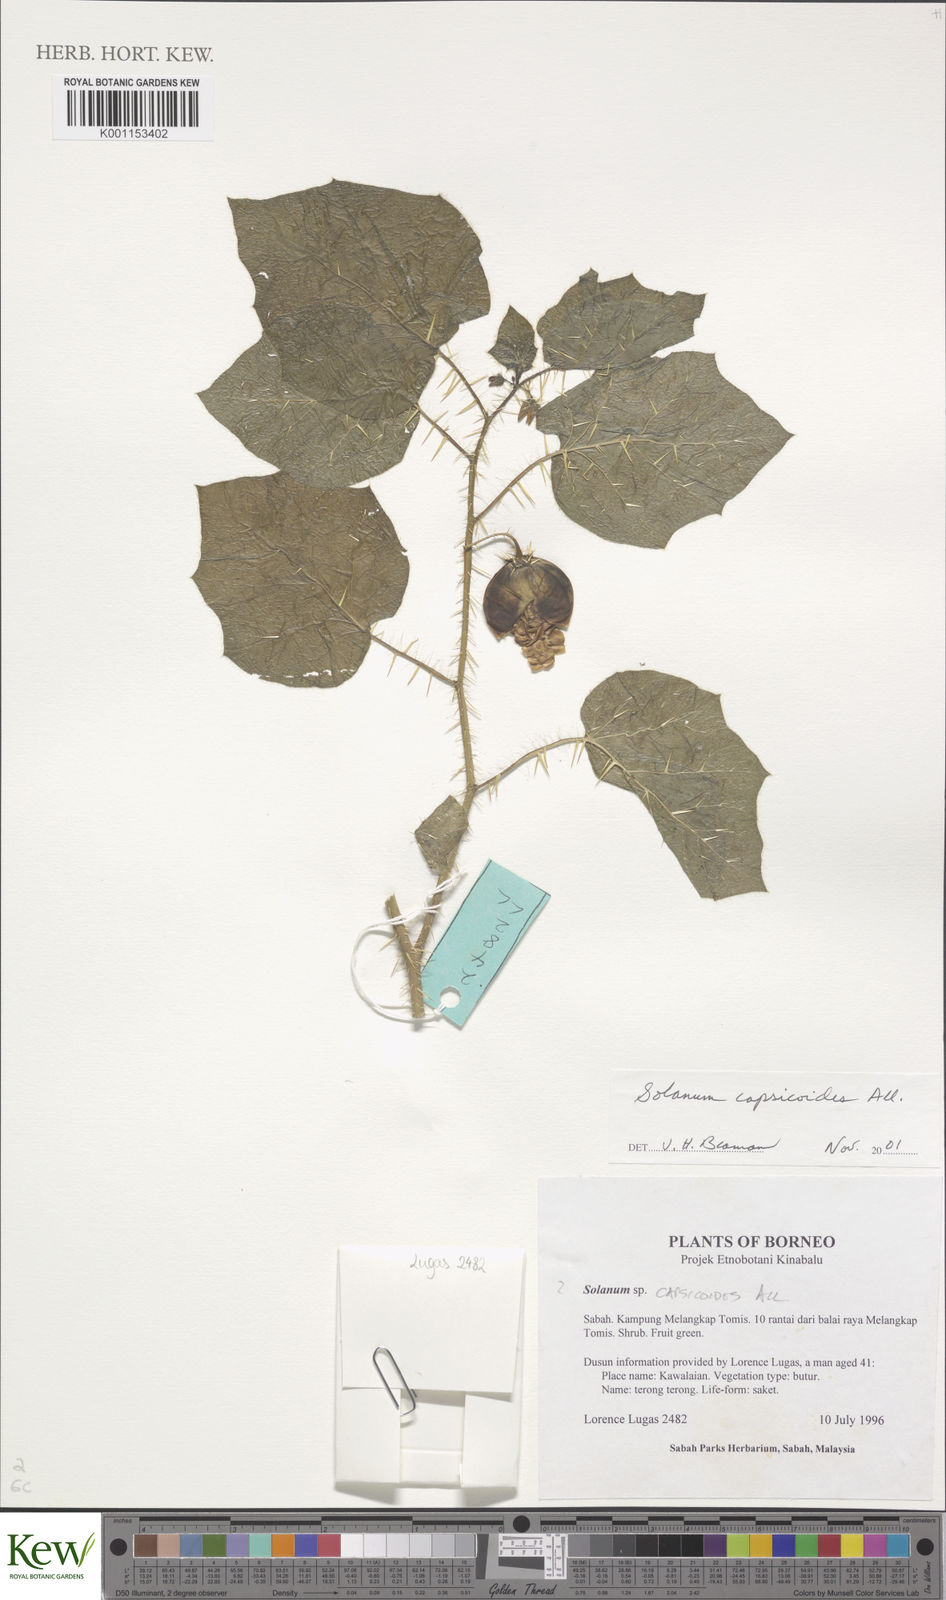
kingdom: Plantae
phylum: Tracheophyta
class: Magnoliopsida
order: Solanales
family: Solanaceae
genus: Solanum
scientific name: Solanum capsicoides
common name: Cockroach berry
